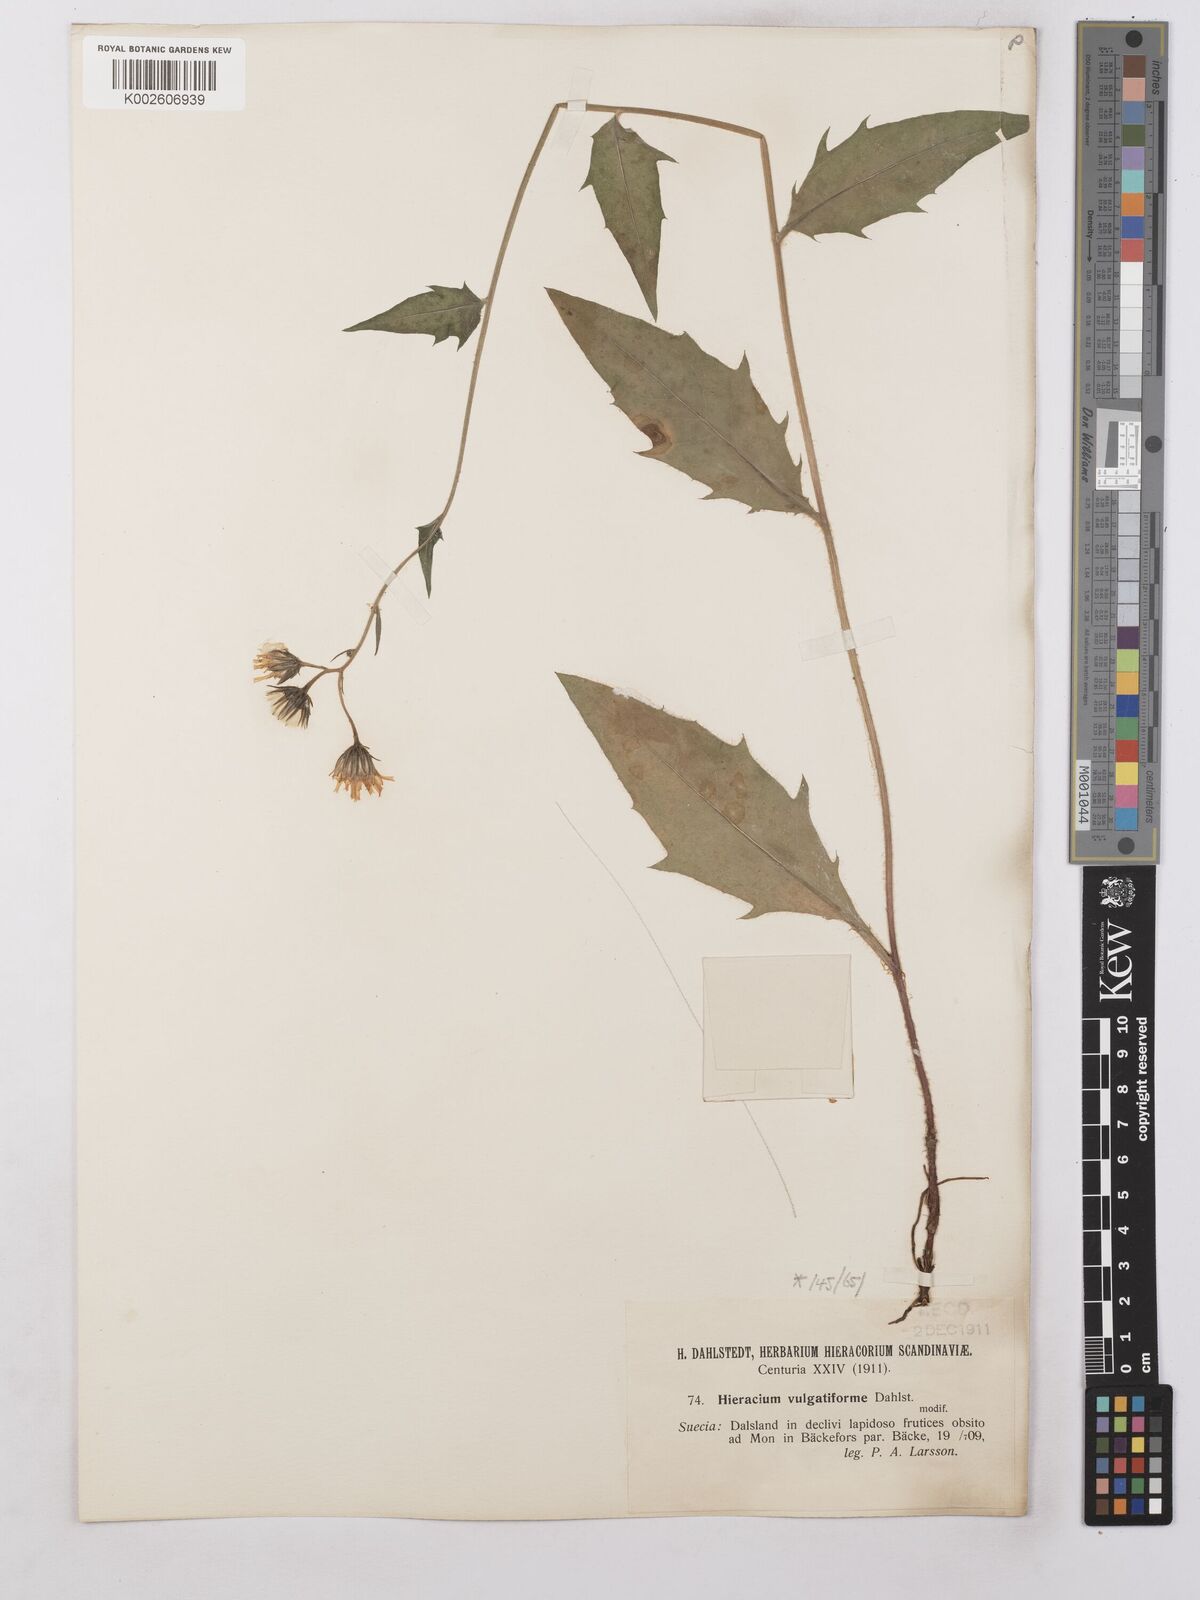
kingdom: Plantae
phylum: Tracheophyta
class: Magnoliopsida
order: Asterales
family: Asteraceae
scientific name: Asteraceae
